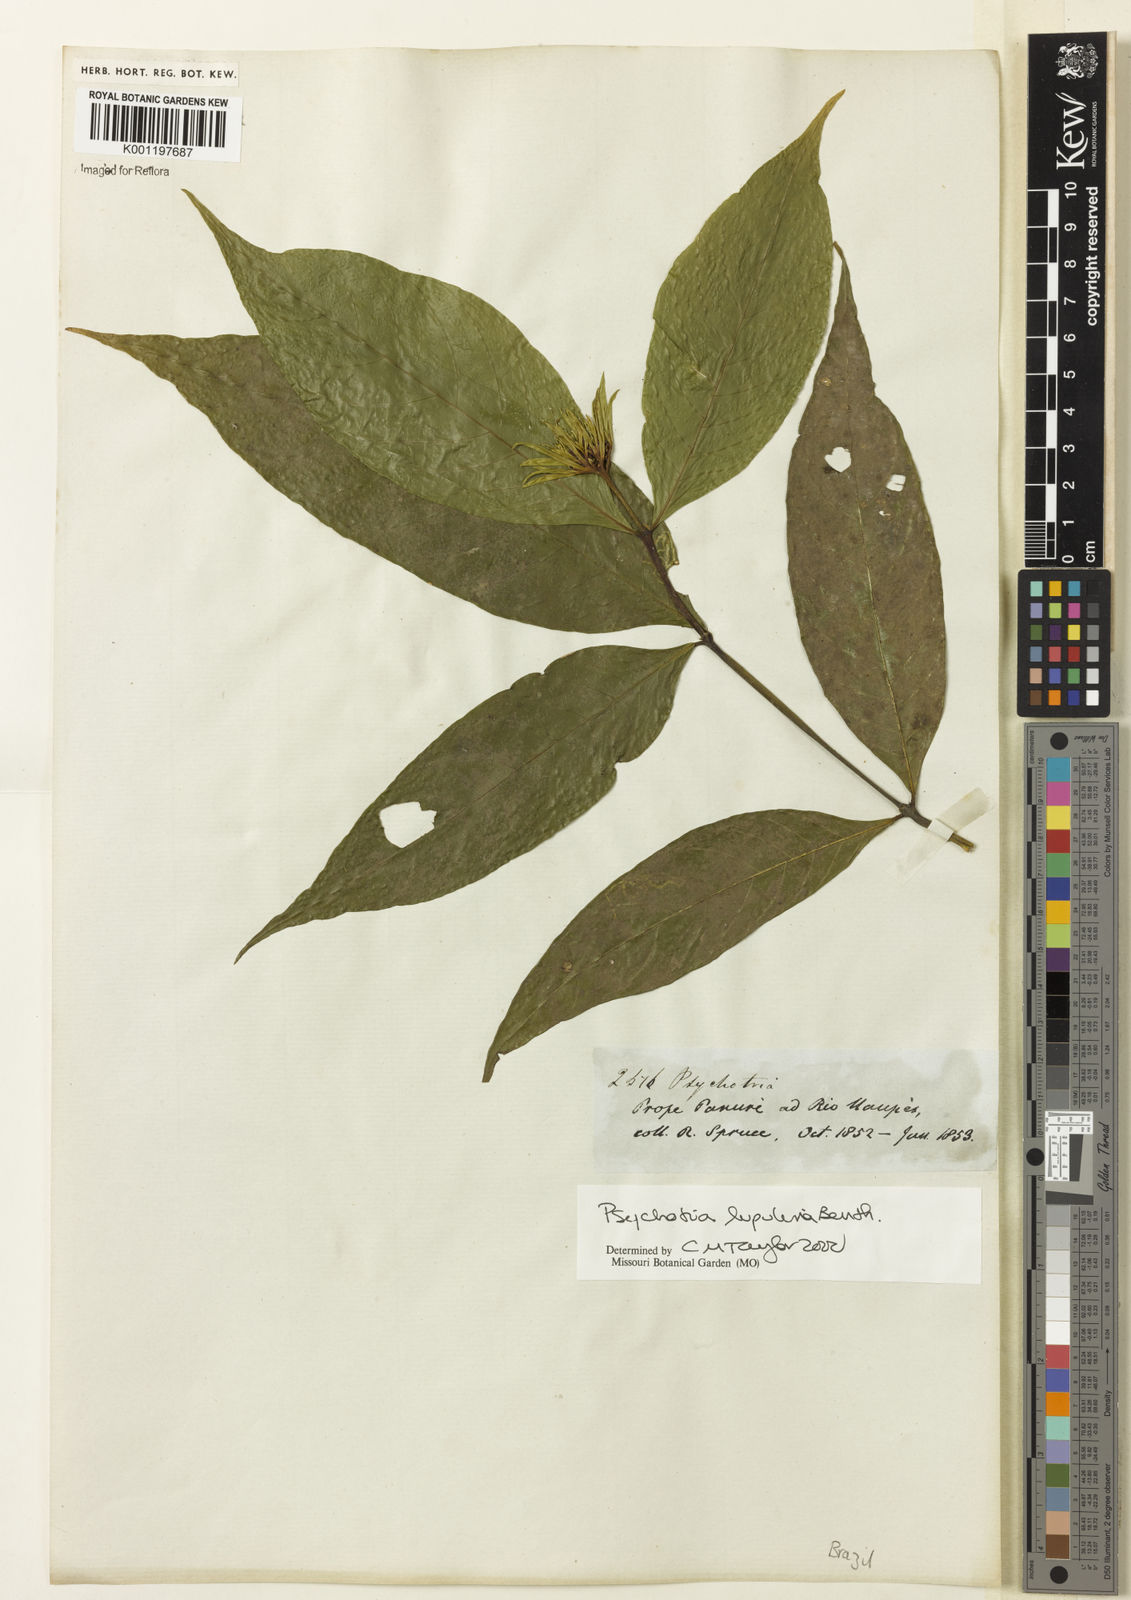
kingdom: Plantae
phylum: Tracheophyta
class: Magnoliopsida
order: Gentianales
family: Rubiaceae
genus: Palicourea
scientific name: Palicourea justiciifolia
